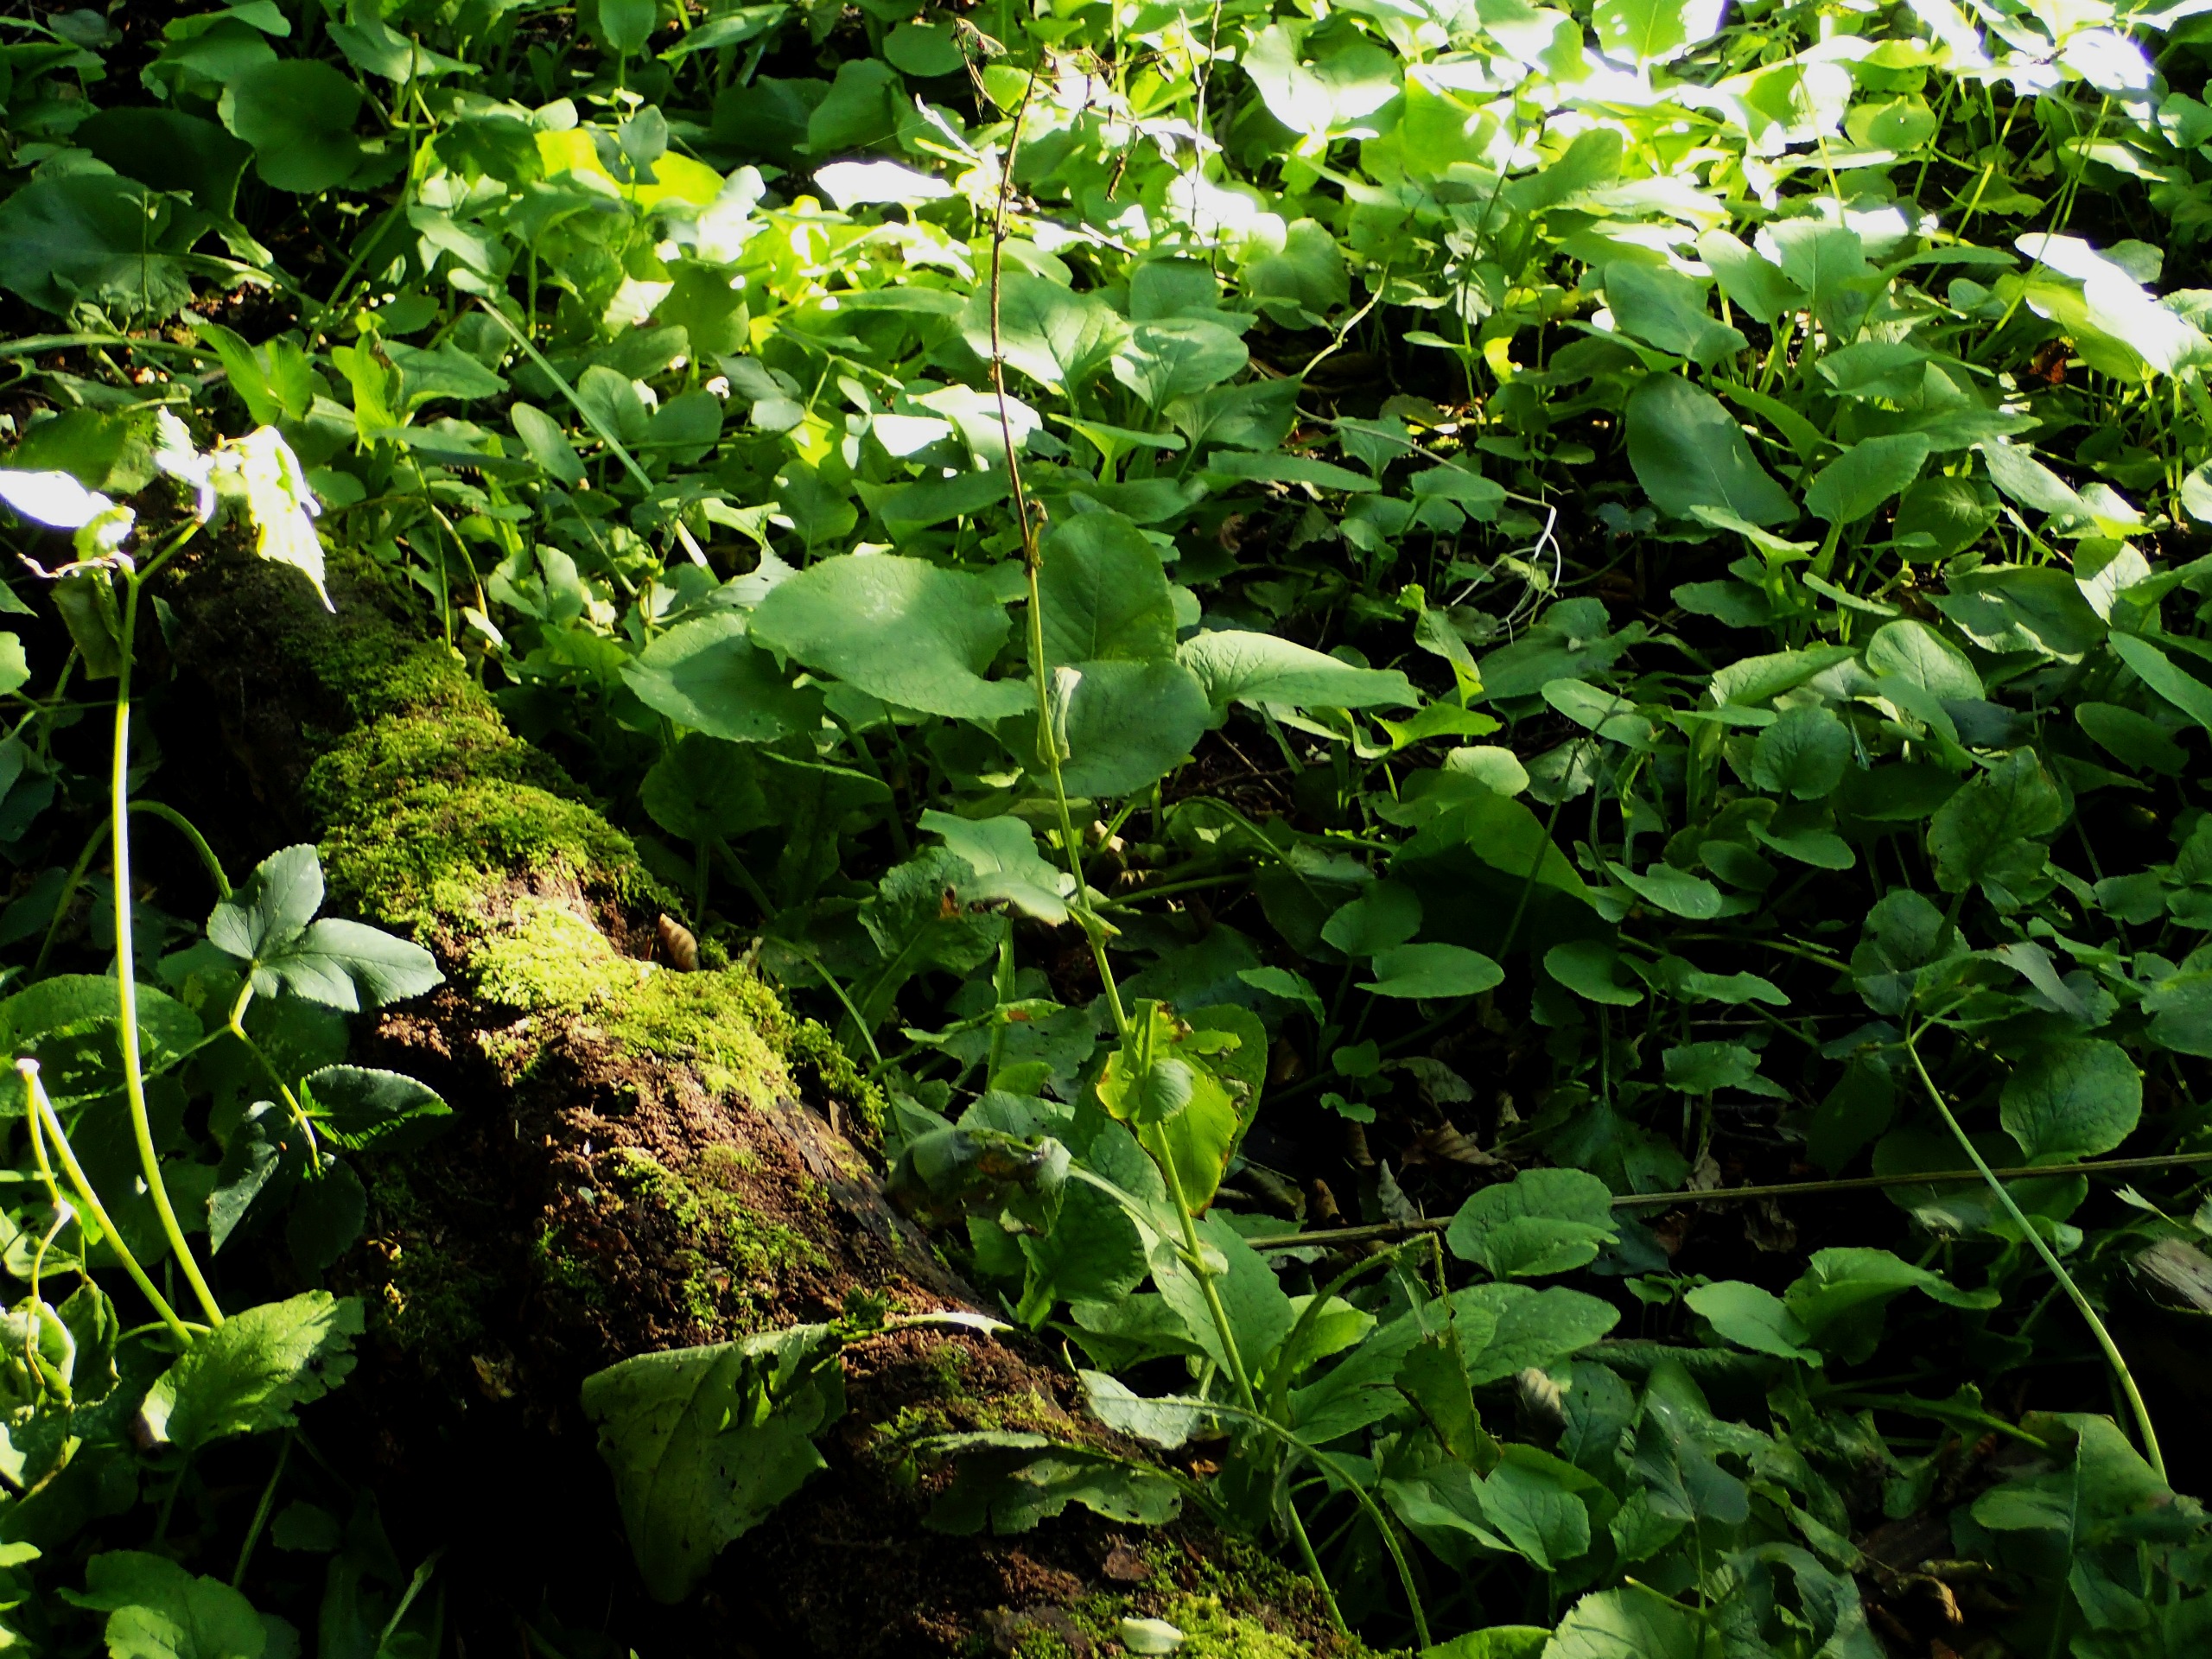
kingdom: Plantae
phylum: Tracheophyta
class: Magnoliopsida
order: Asterales
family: Asteraceae
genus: Lactuca
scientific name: Lactuca macrophylla
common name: Kæmpe-salat
